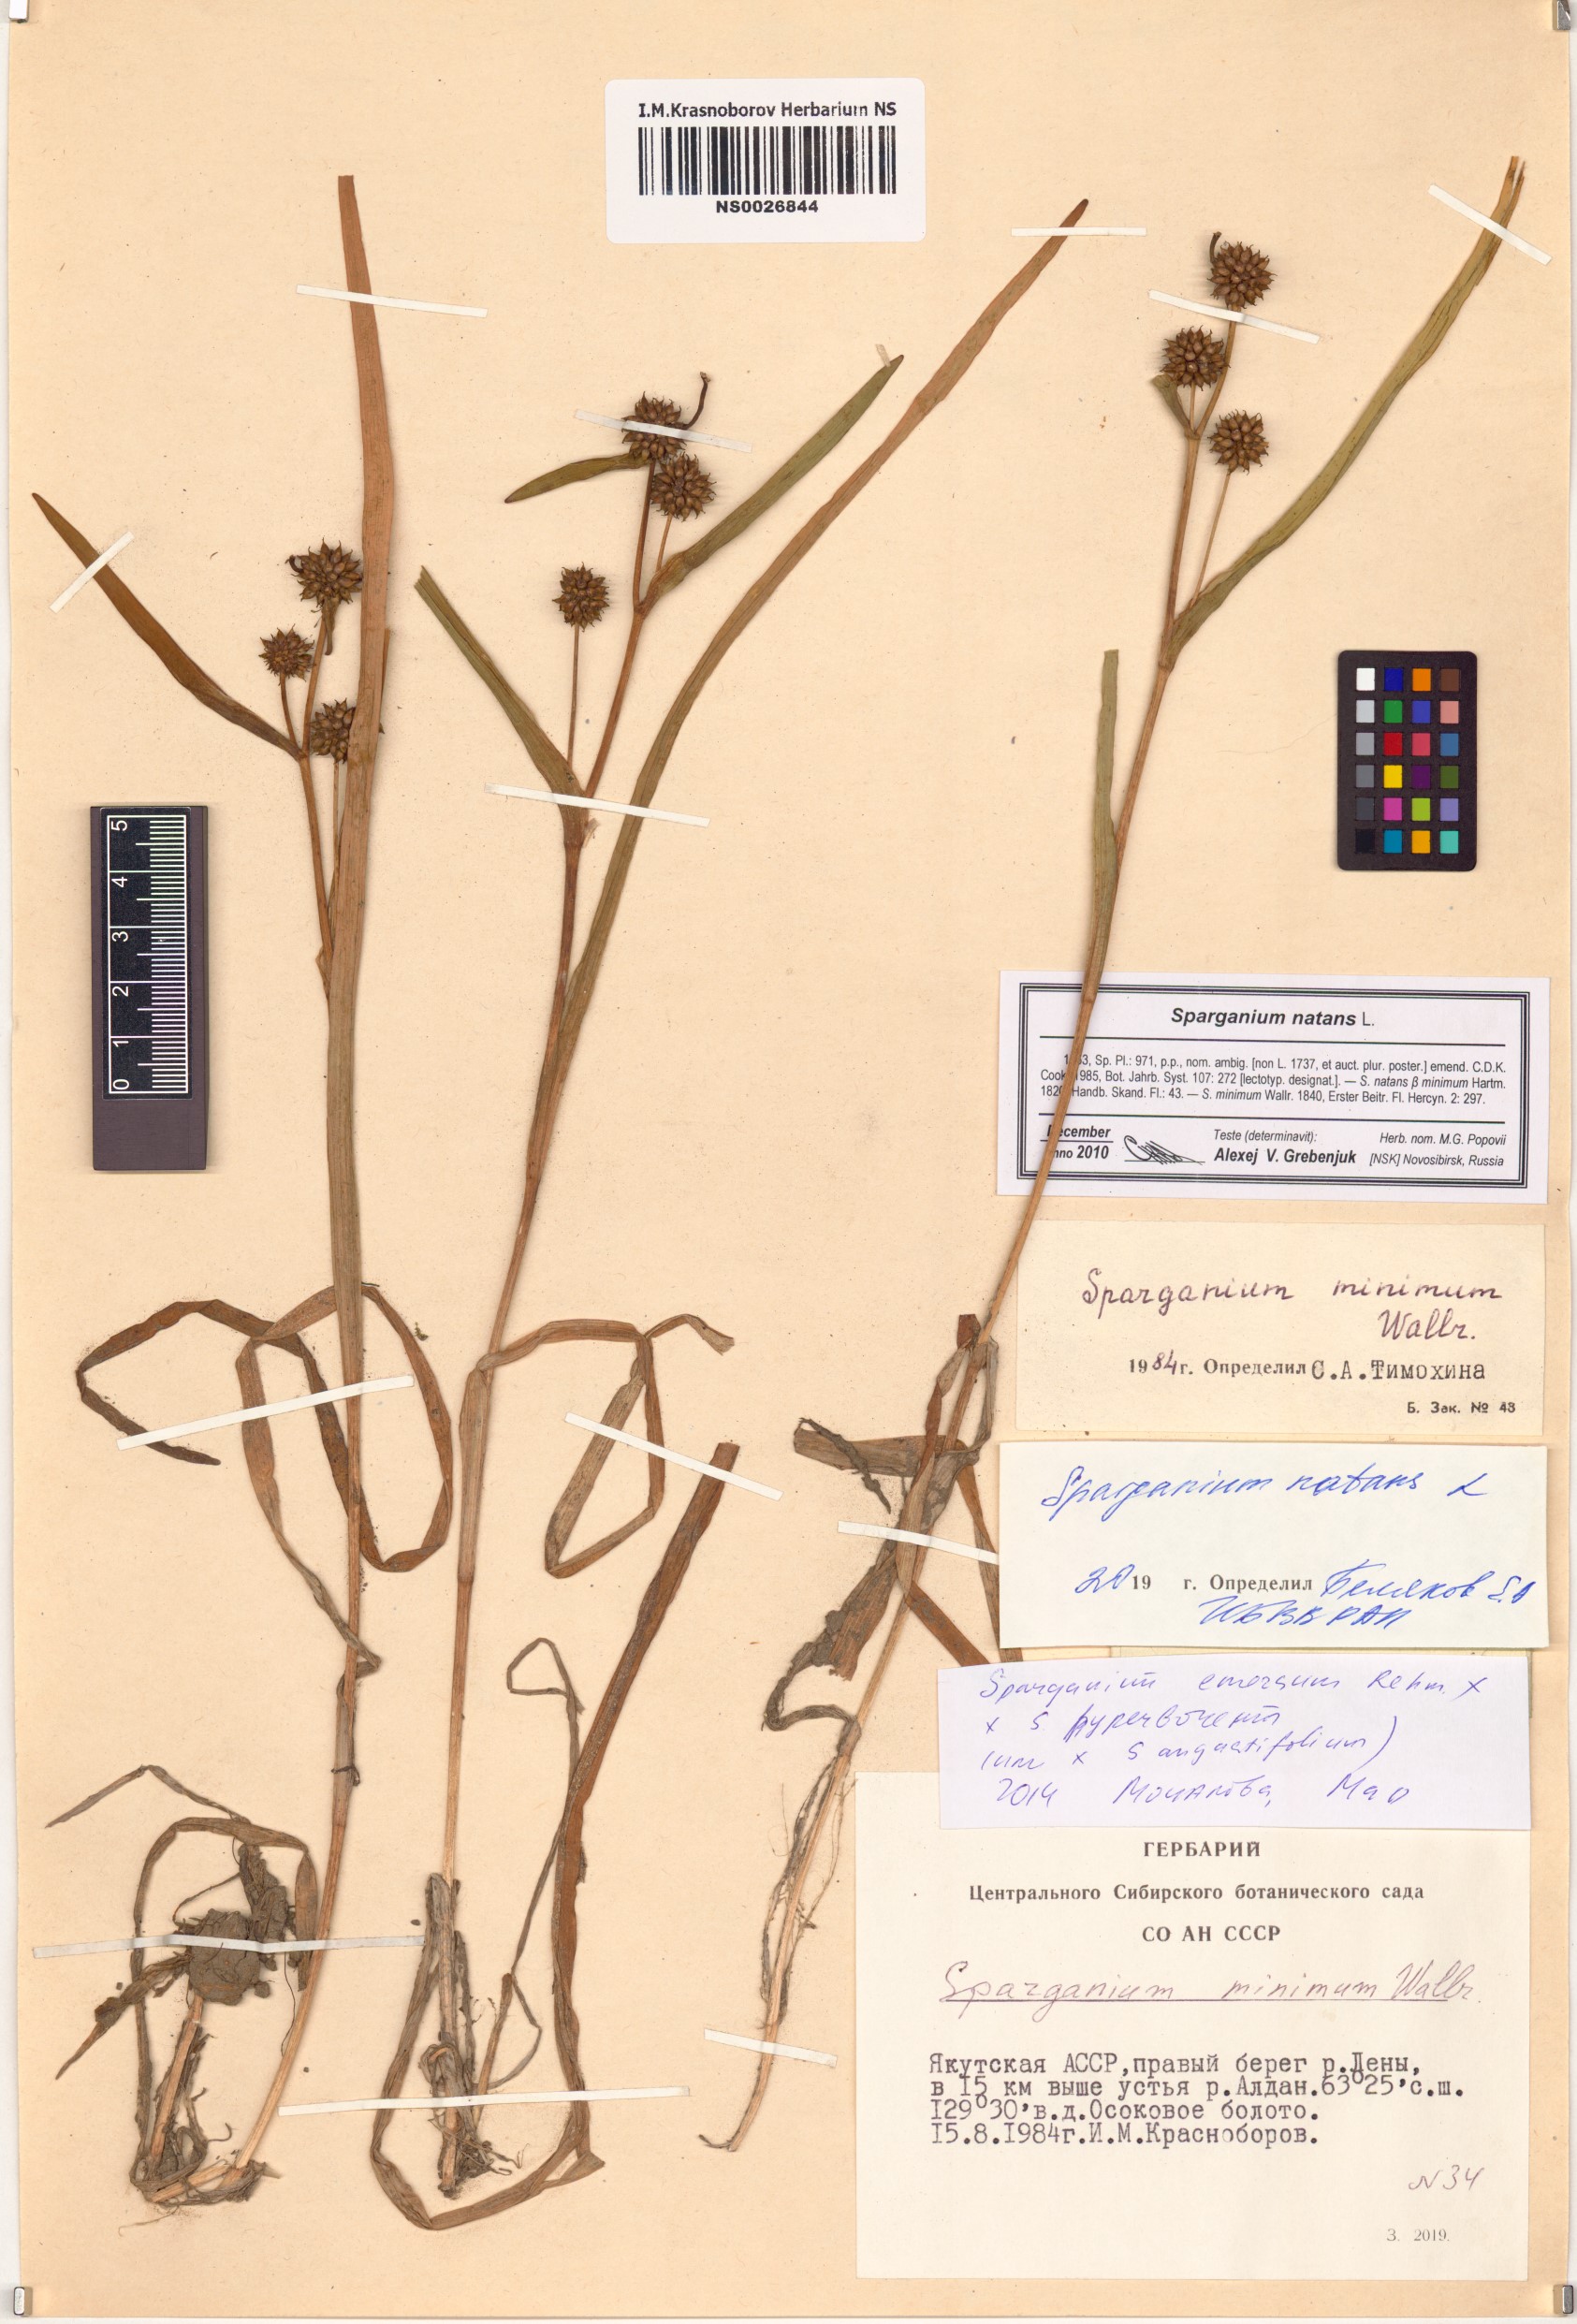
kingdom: Plantae
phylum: Tracheophyta
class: Liliopsida
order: Poales
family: Typhaceae
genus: Sparganium
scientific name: Sparganium natans
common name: Least bur-reed
